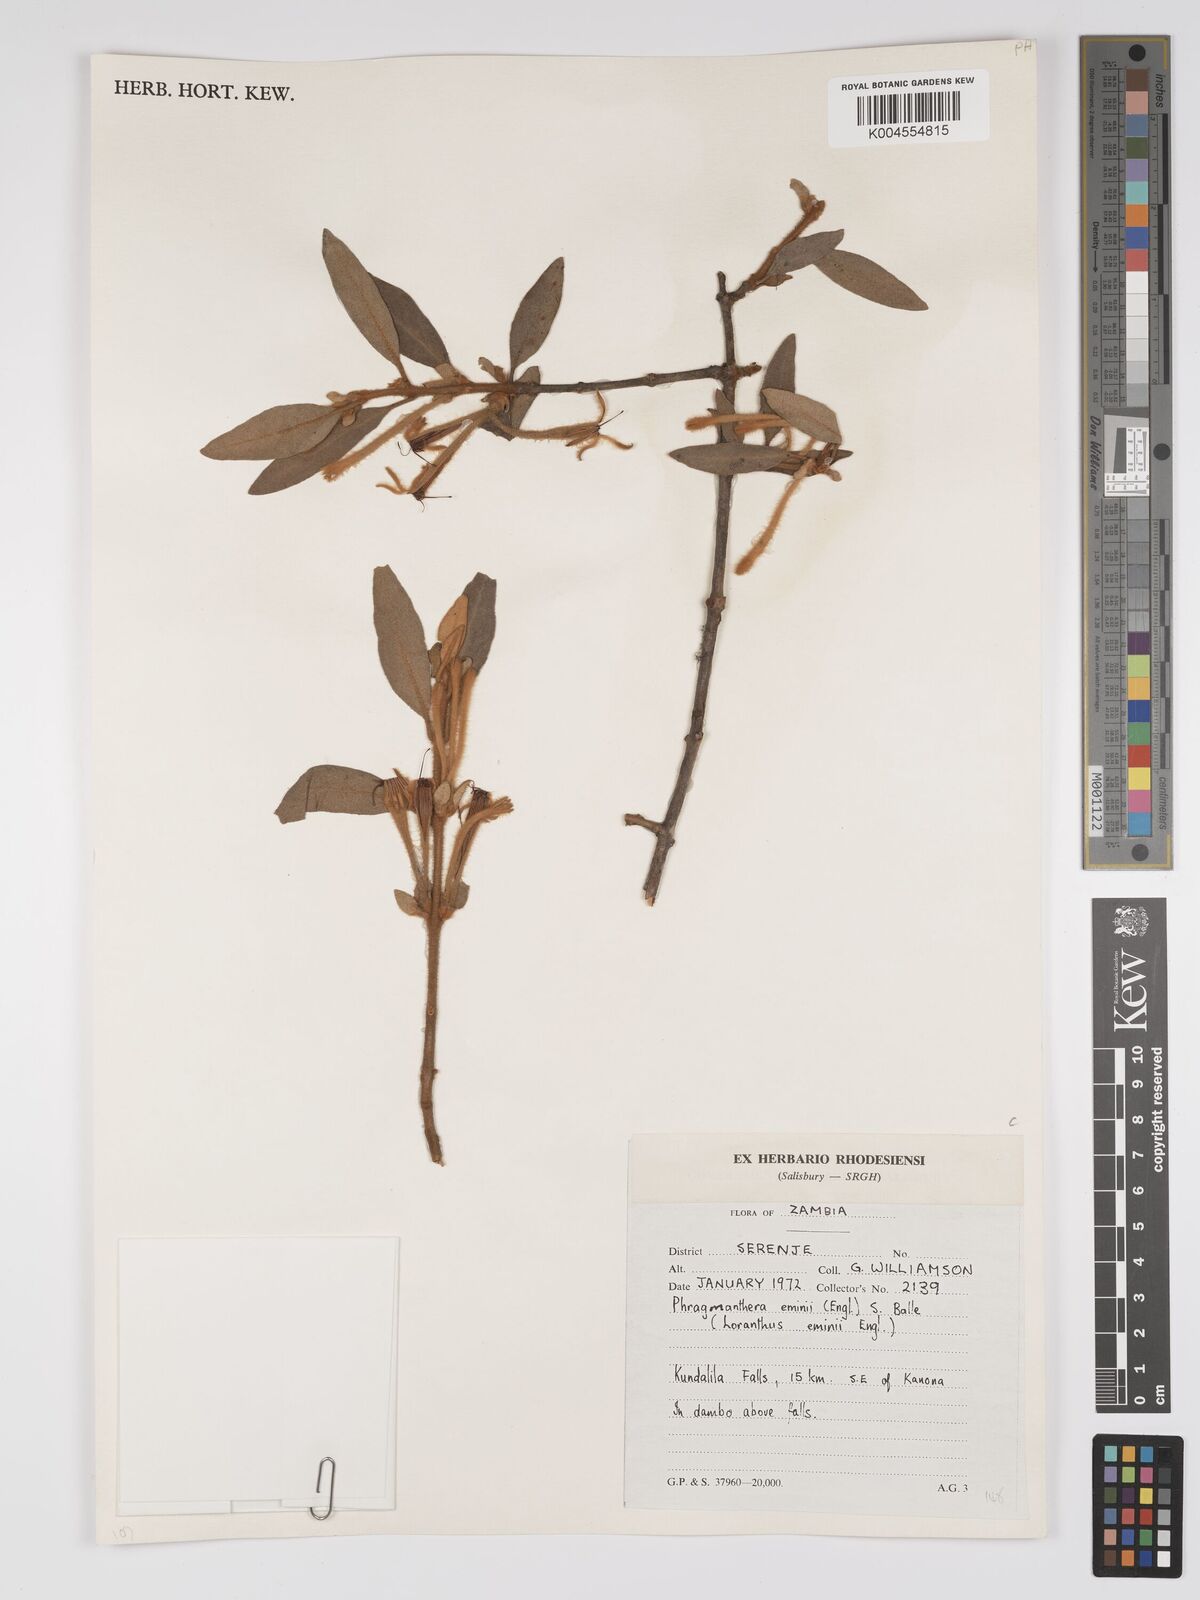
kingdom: Plantae
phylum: Tracheophyta
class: Magnoliopsida
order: Santalales
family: Loranthaceae
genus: Phragmanthera
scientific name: Phragmanthera proteicola
